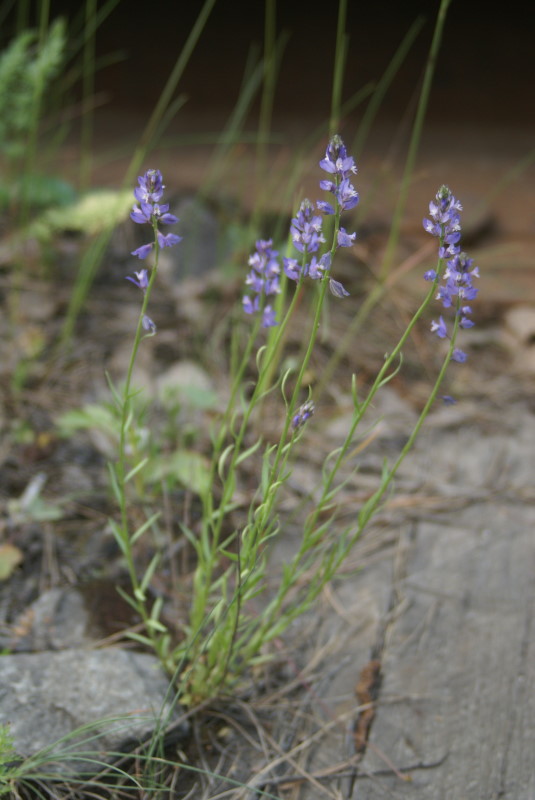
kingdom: Plantae
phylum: Tracheophyta
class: Magnoliopsida
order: Fabales
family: Polygalaceae
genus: Polygala
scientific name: Polygala comosa
